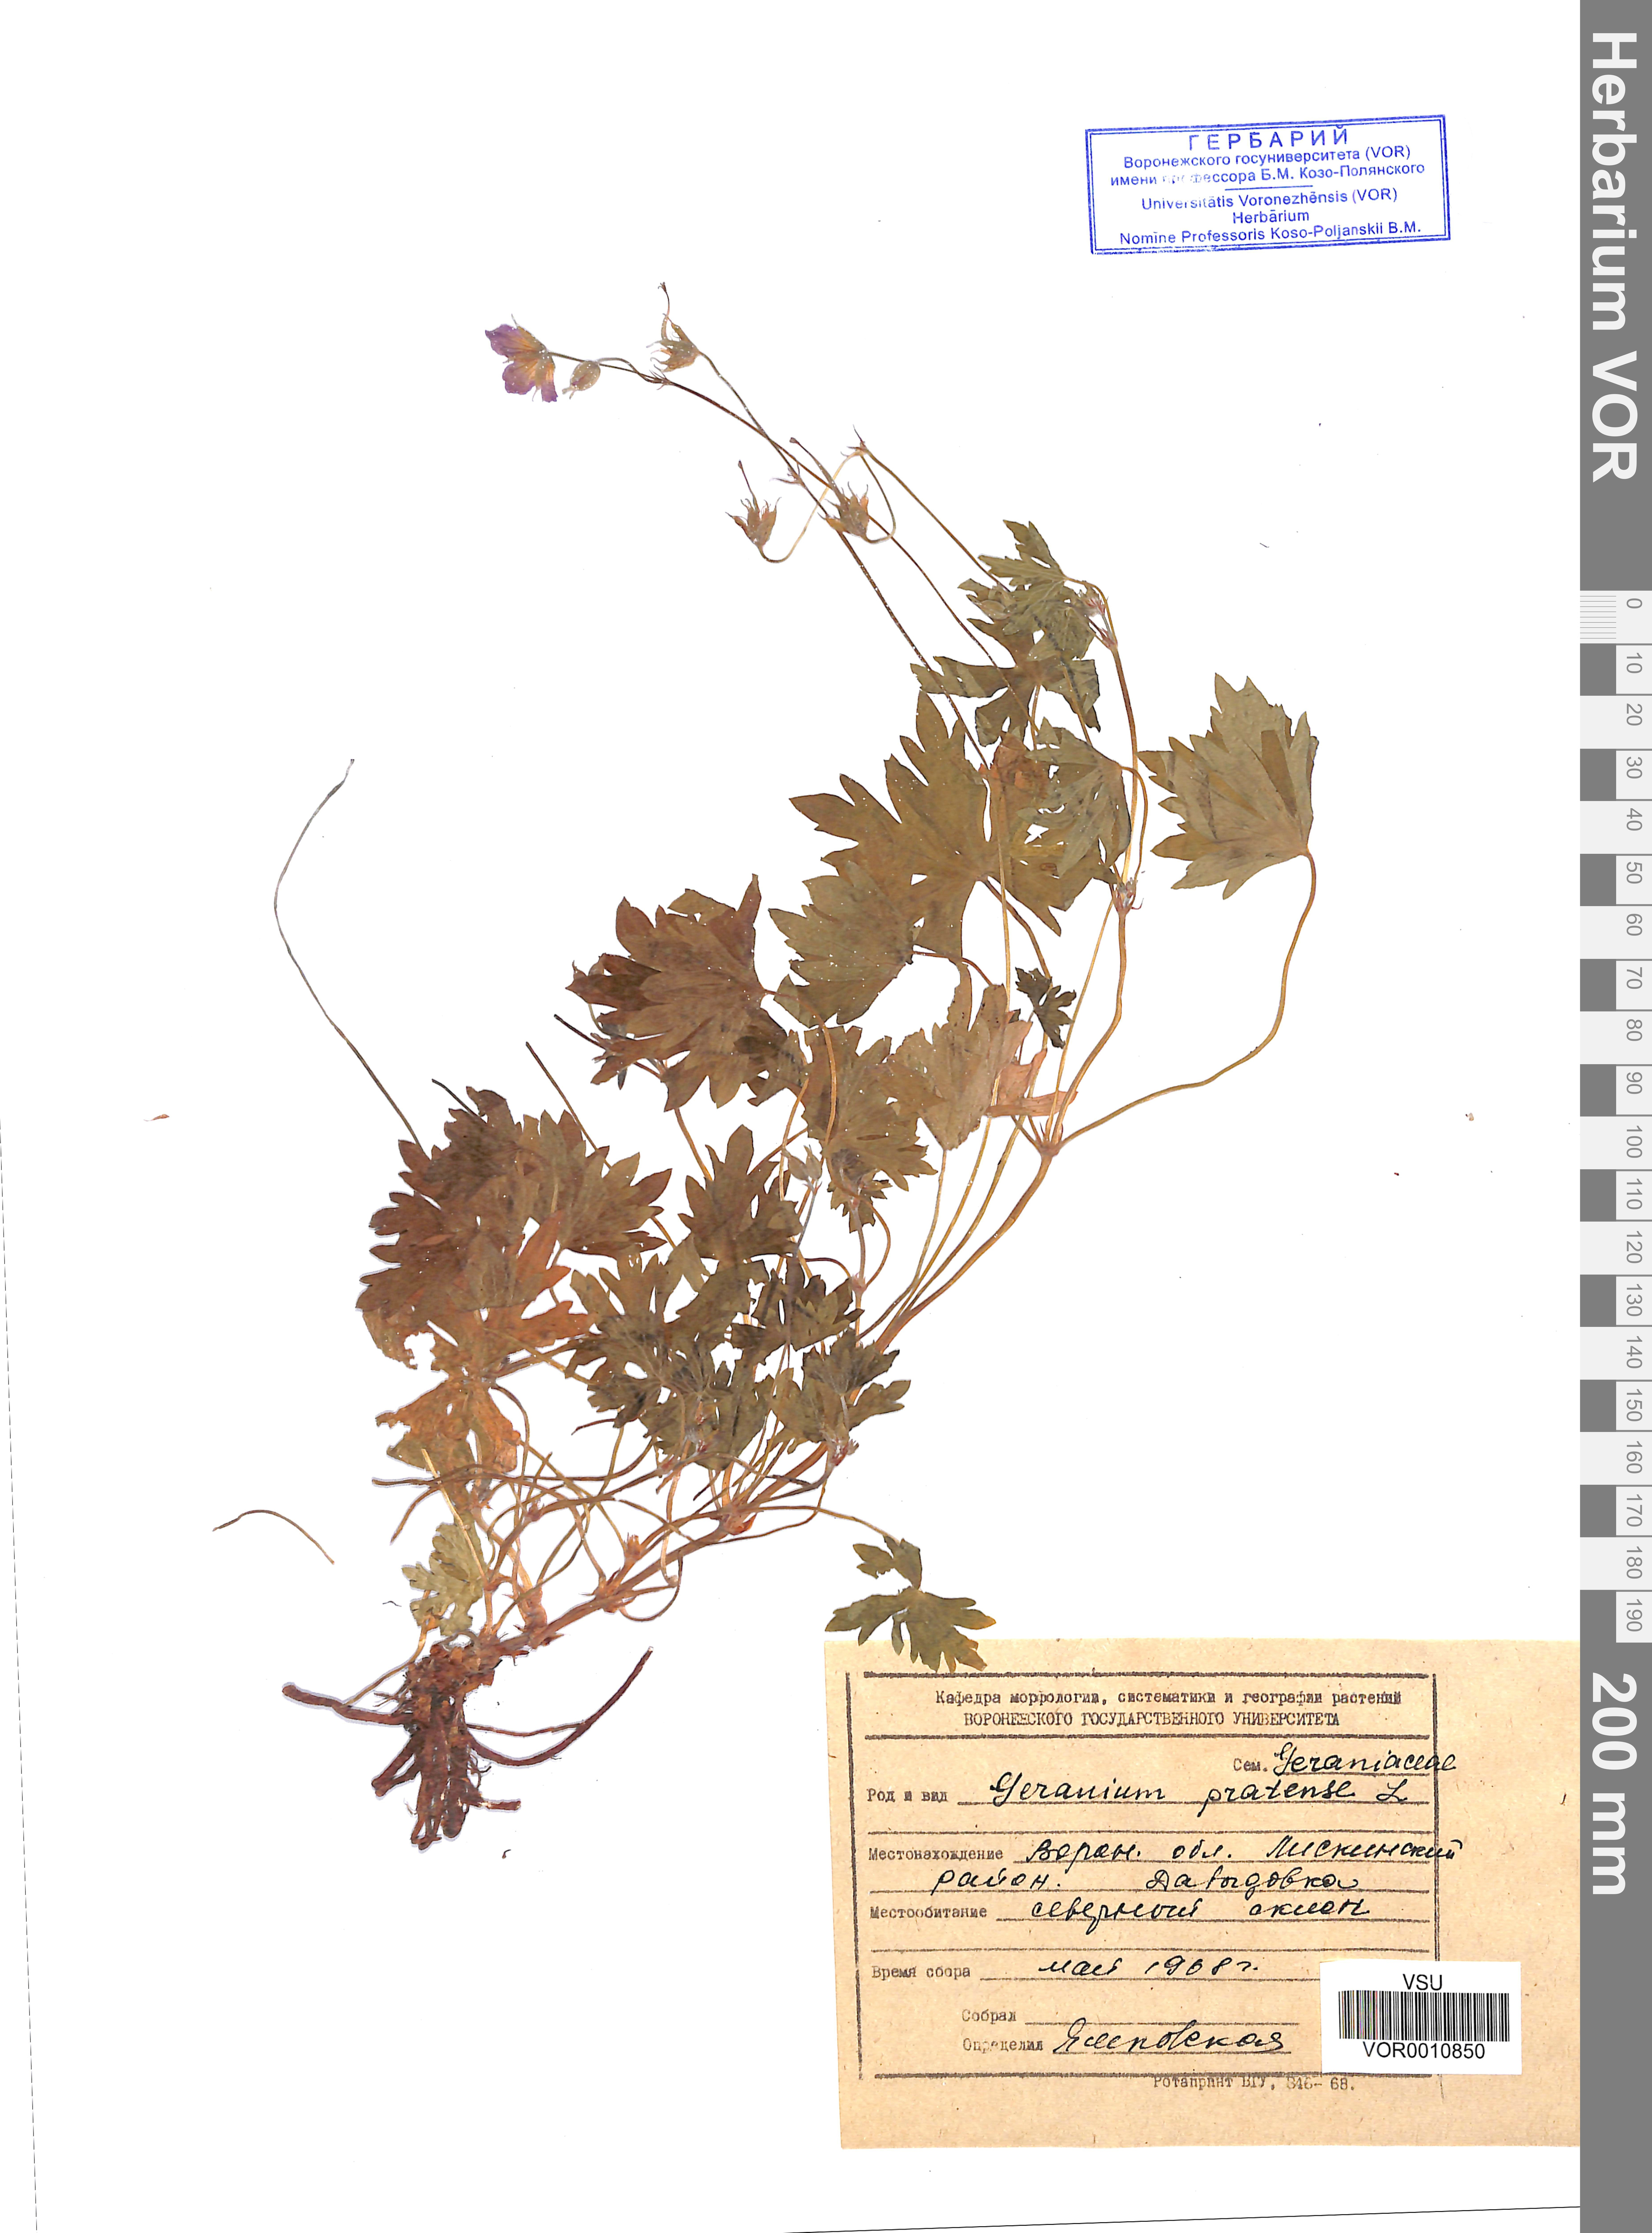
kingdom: Plantae
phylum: Tracheophyta
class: Magnoliopsida
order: Geraniales
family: Geraniaceae
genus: Geranium
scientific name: Geranium pratense
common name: Meadow crane's-bill
